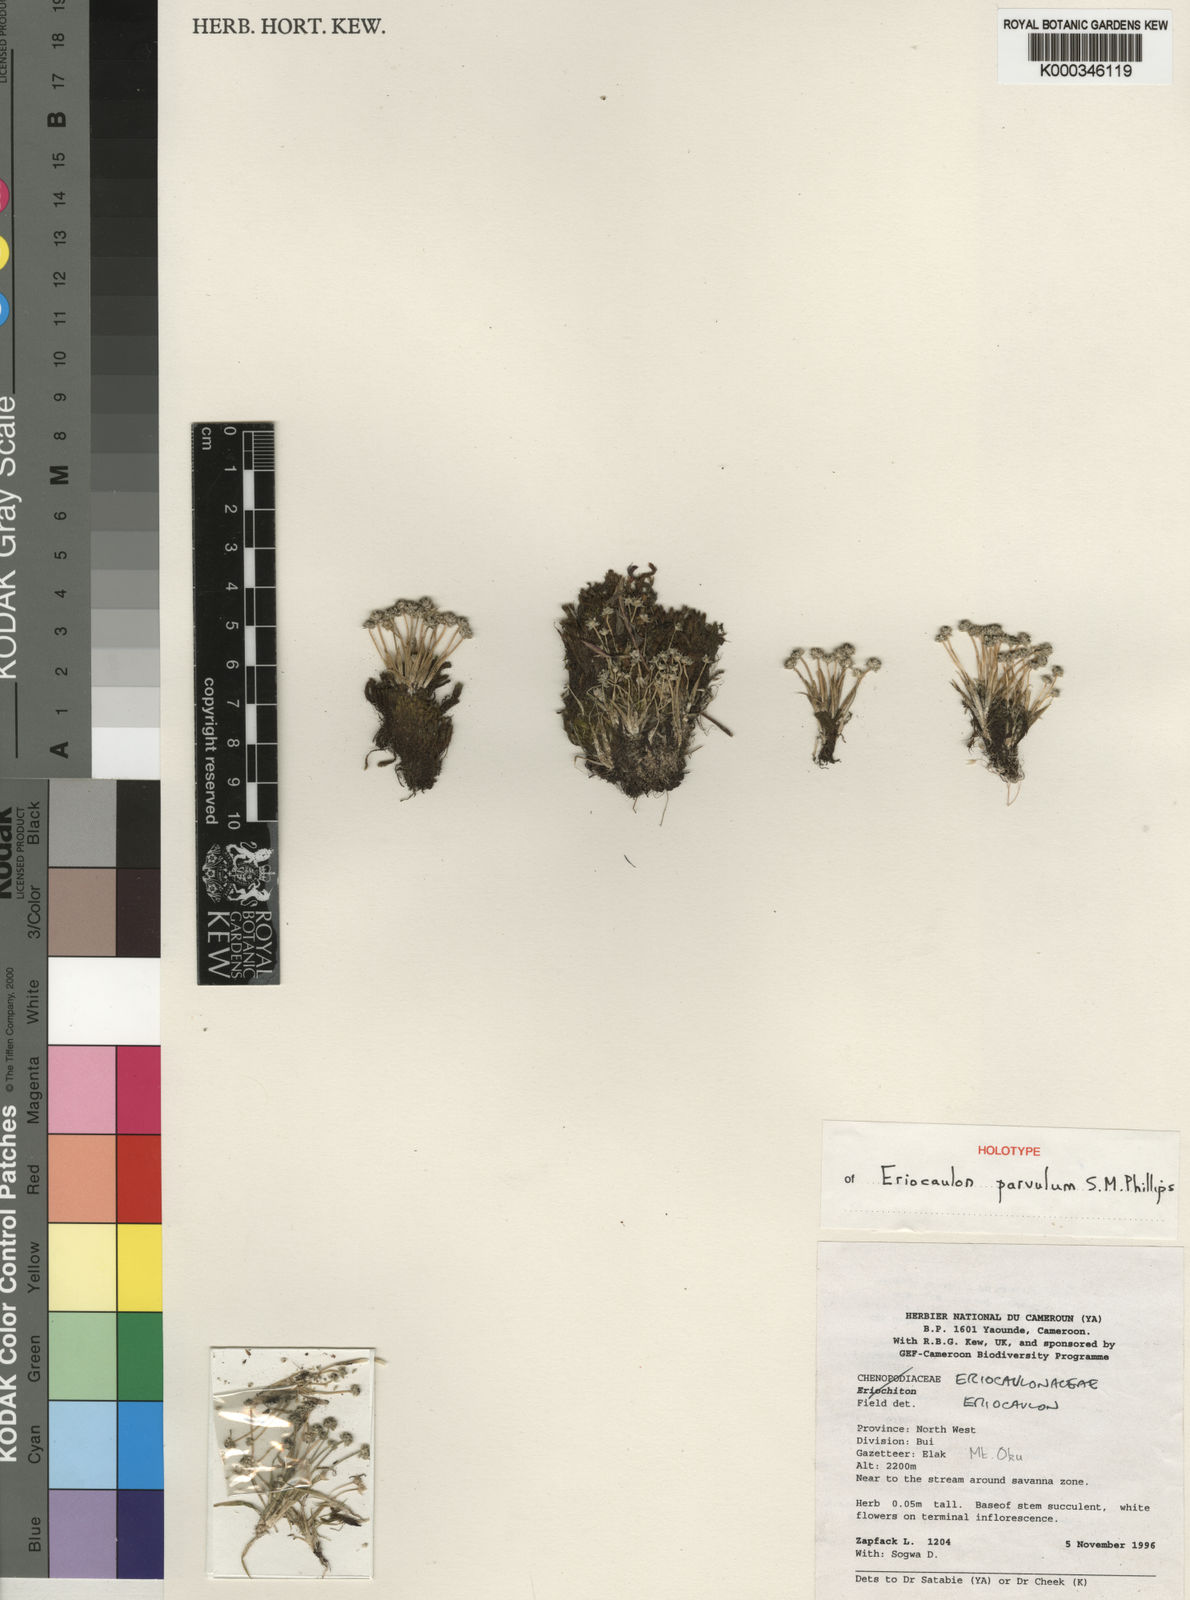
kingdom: Plantae
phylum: Tracheophyta
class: Liliopsida
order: Poales
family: Eriocaulaceae
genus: Eriocaulon
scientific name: Eriocaulon parvulum
